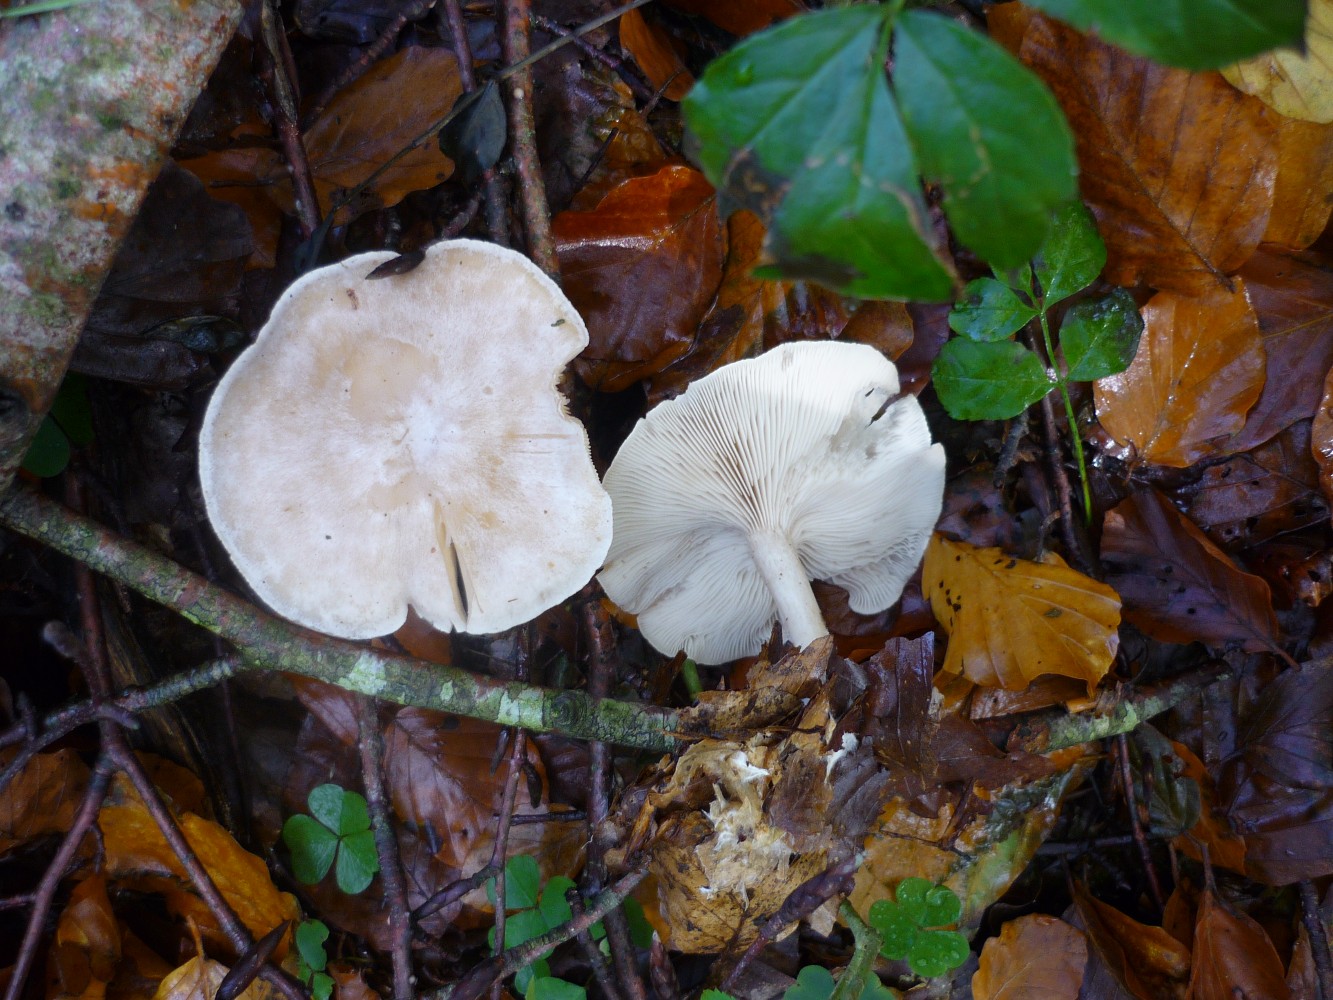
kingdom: Fungi
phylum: Basidiomycota
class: Agaricomycetes
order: Agaricales
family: Tricholomataceae
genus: Clitocybe
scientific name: Clitocybe phyllophila
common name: løv-tragthat
